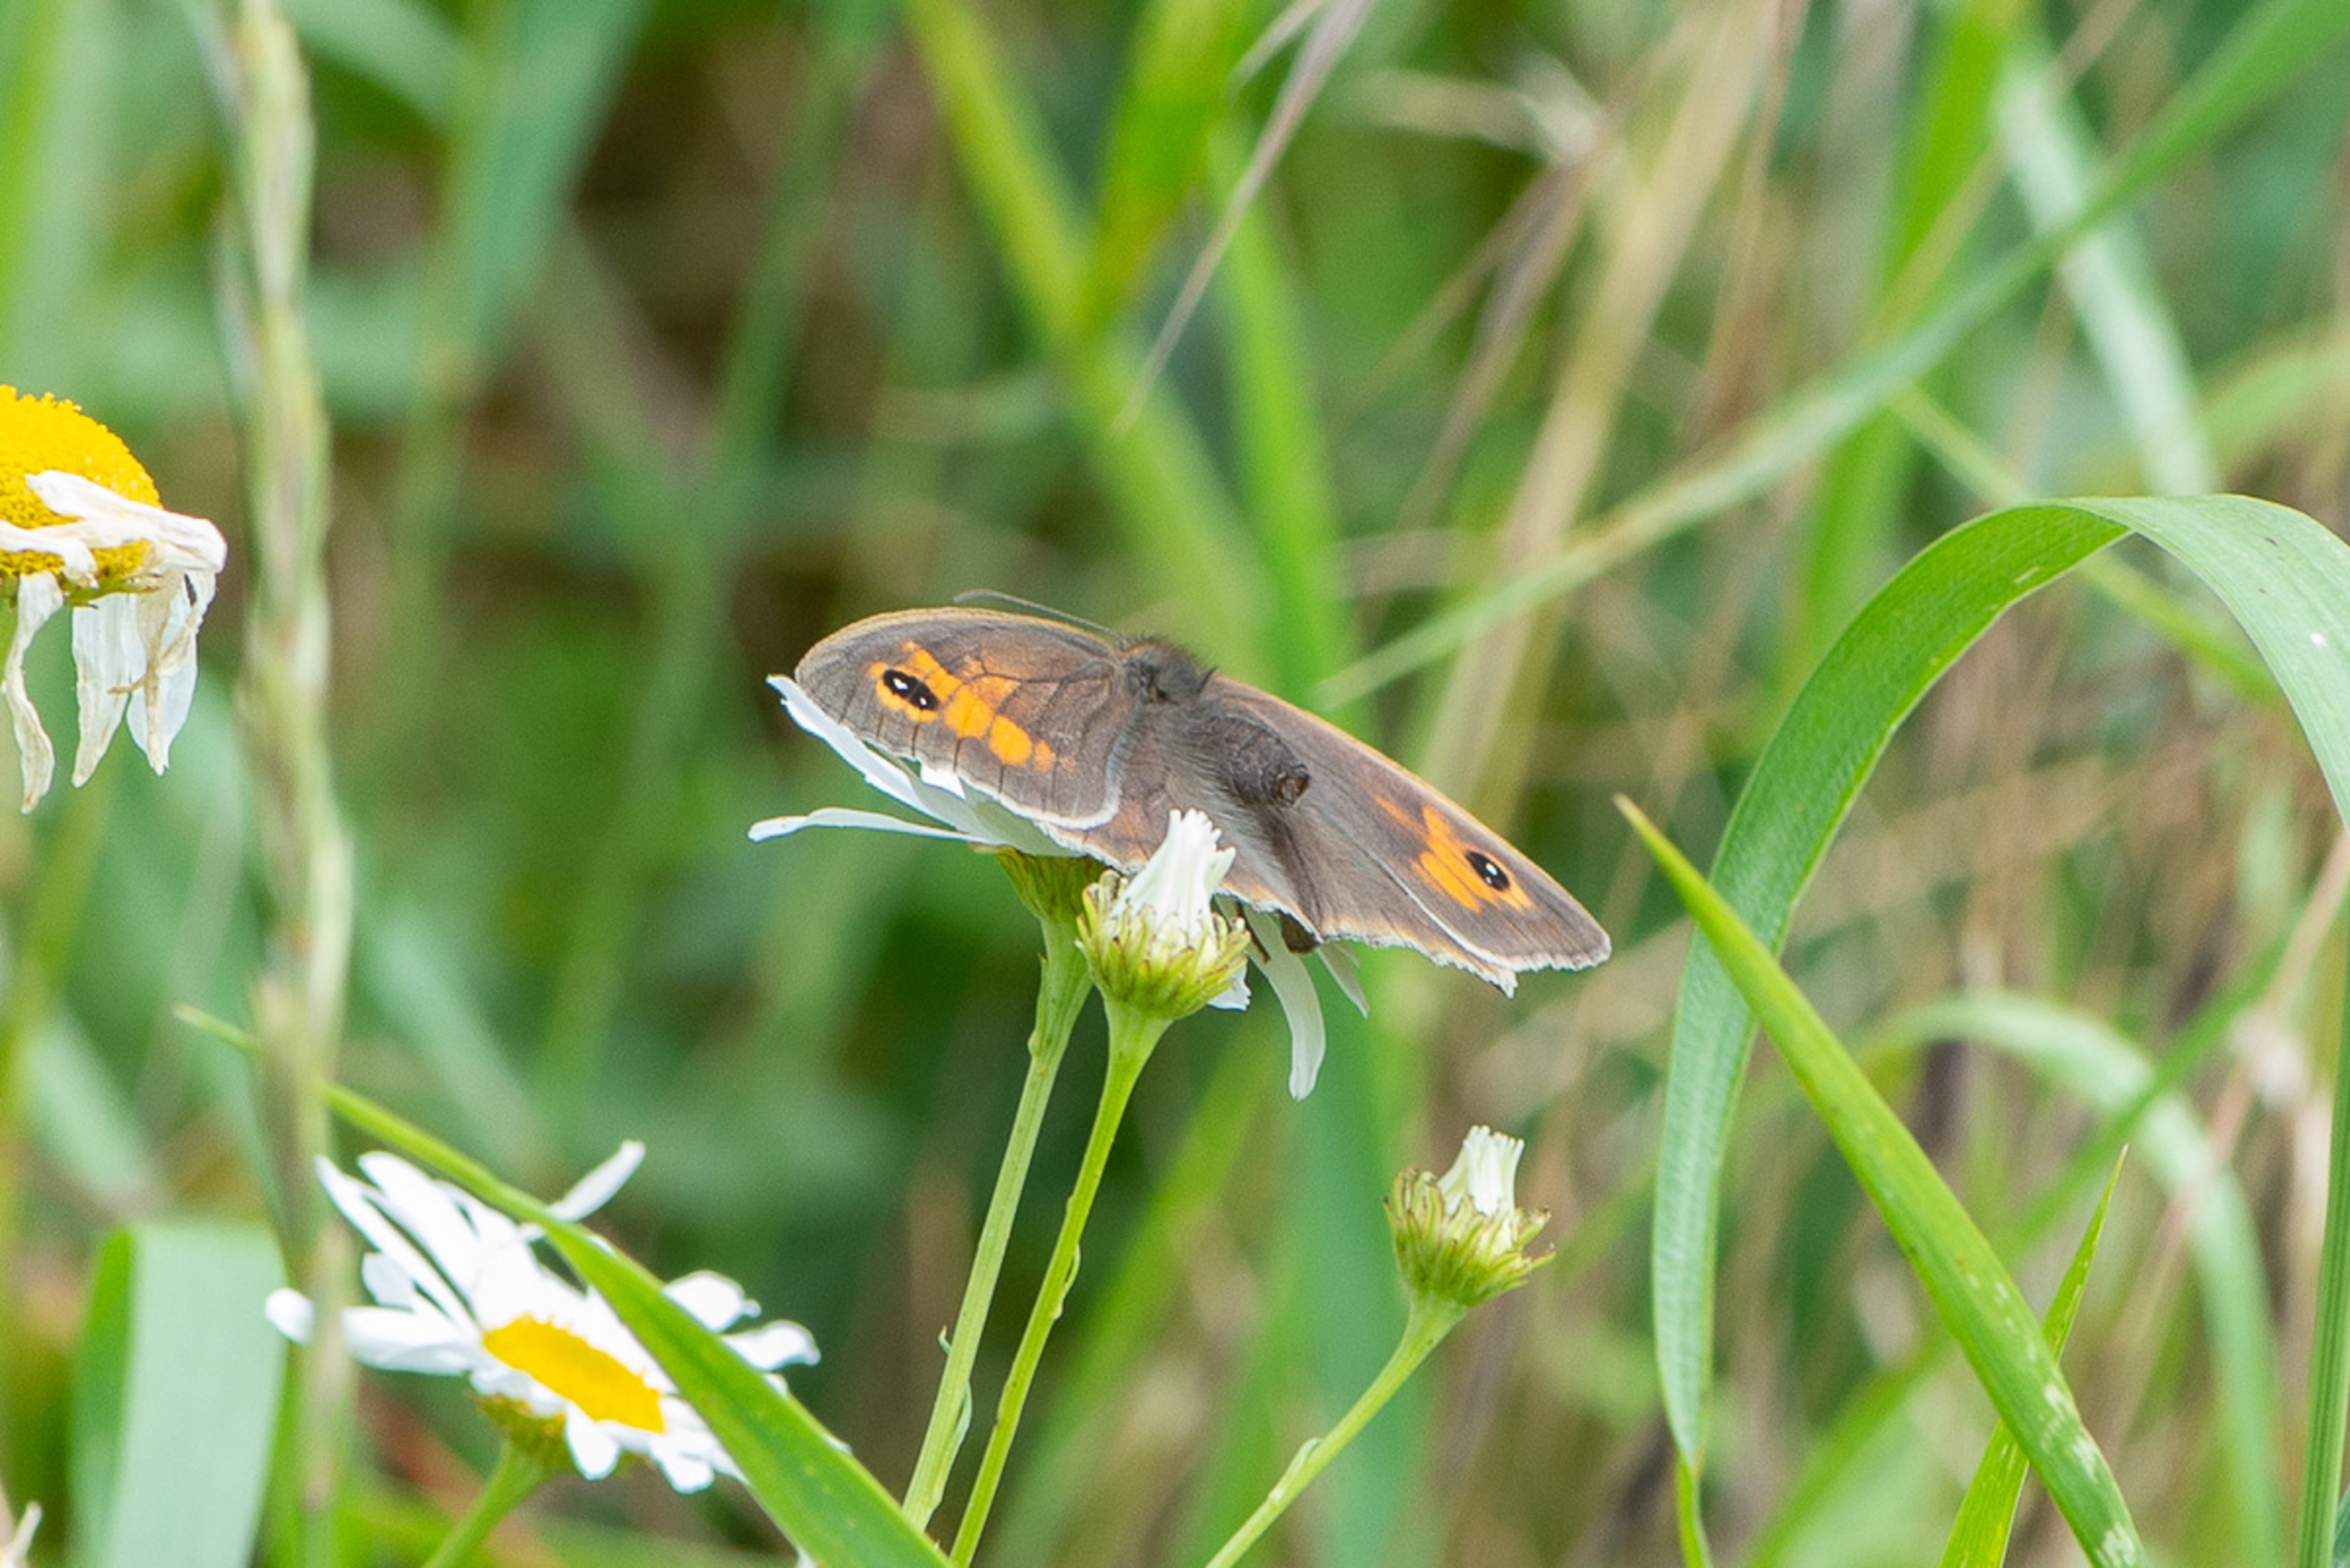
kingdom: Animalia
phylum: Arthropoda
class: Insecta
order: Lepidoptera
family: Nymphalidae
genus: Maniola
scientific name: Maniola jurtina
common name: Græsrandøje
